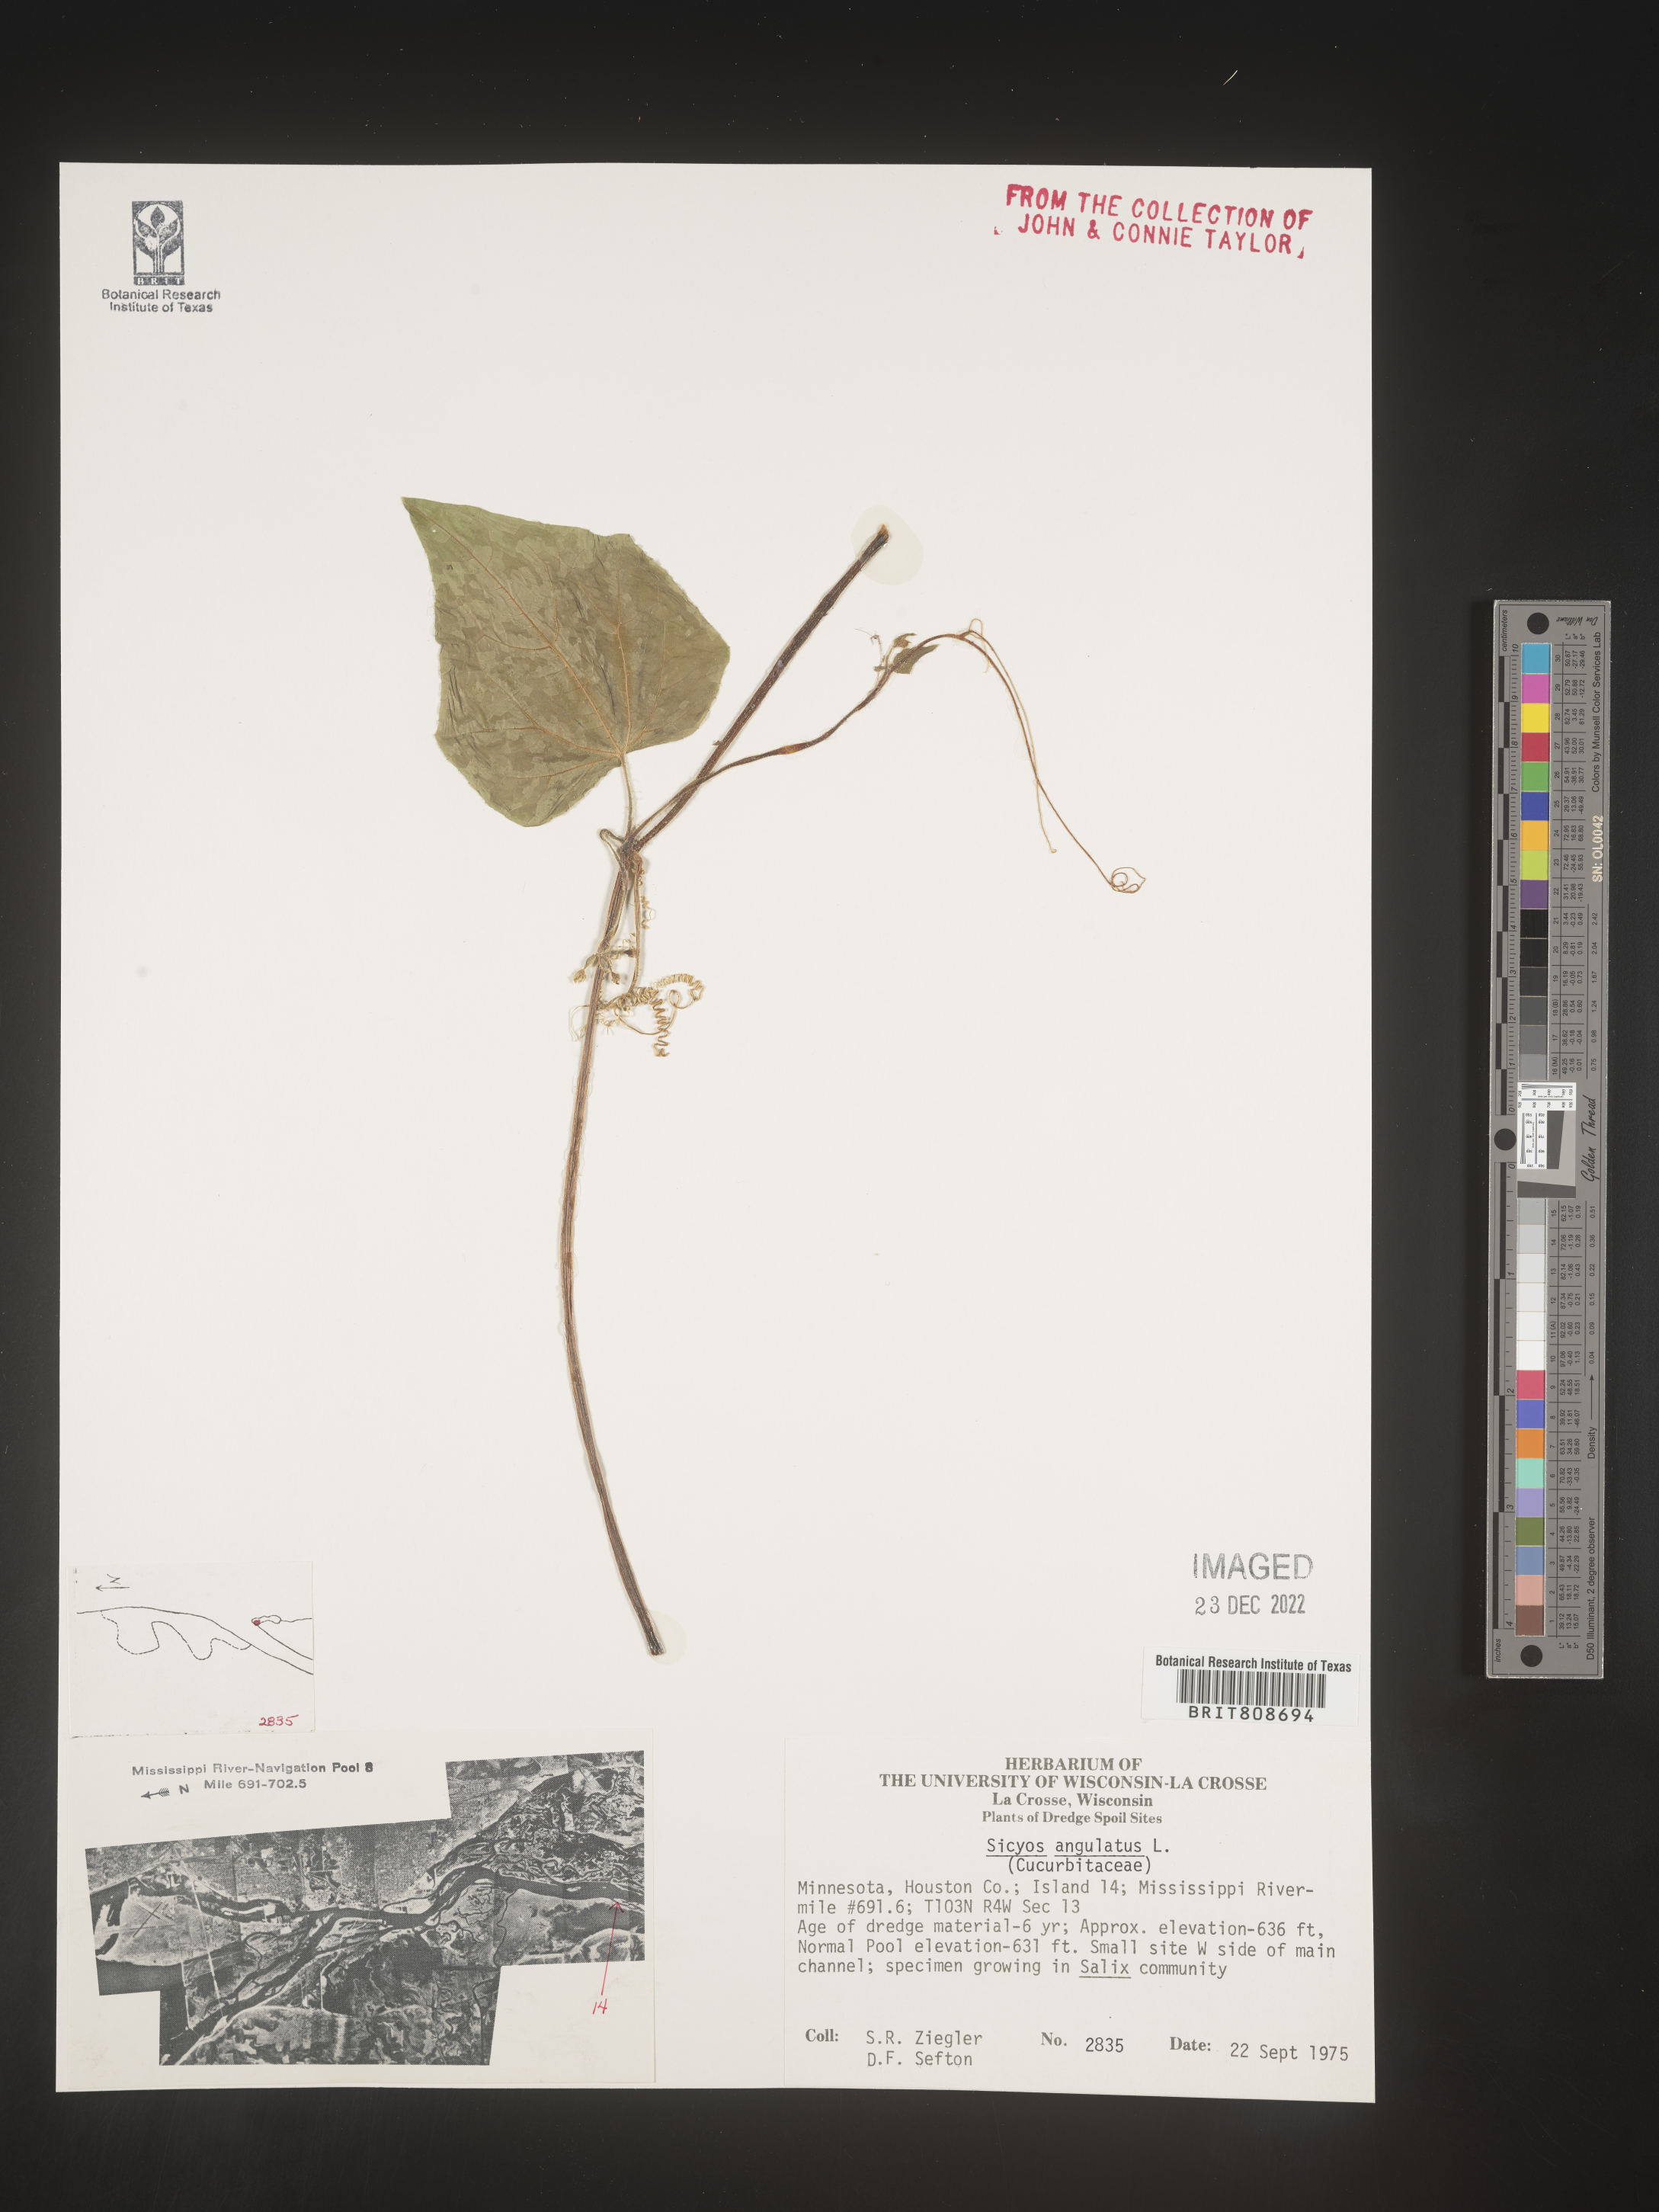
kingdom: Plantae
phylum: Tracheophyta
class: Magnoliopsida
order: Cucurbitales
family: Cucurbitaceae
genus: Sicyos
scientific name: Sicyos angulatus
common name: Angled burr cucumber
